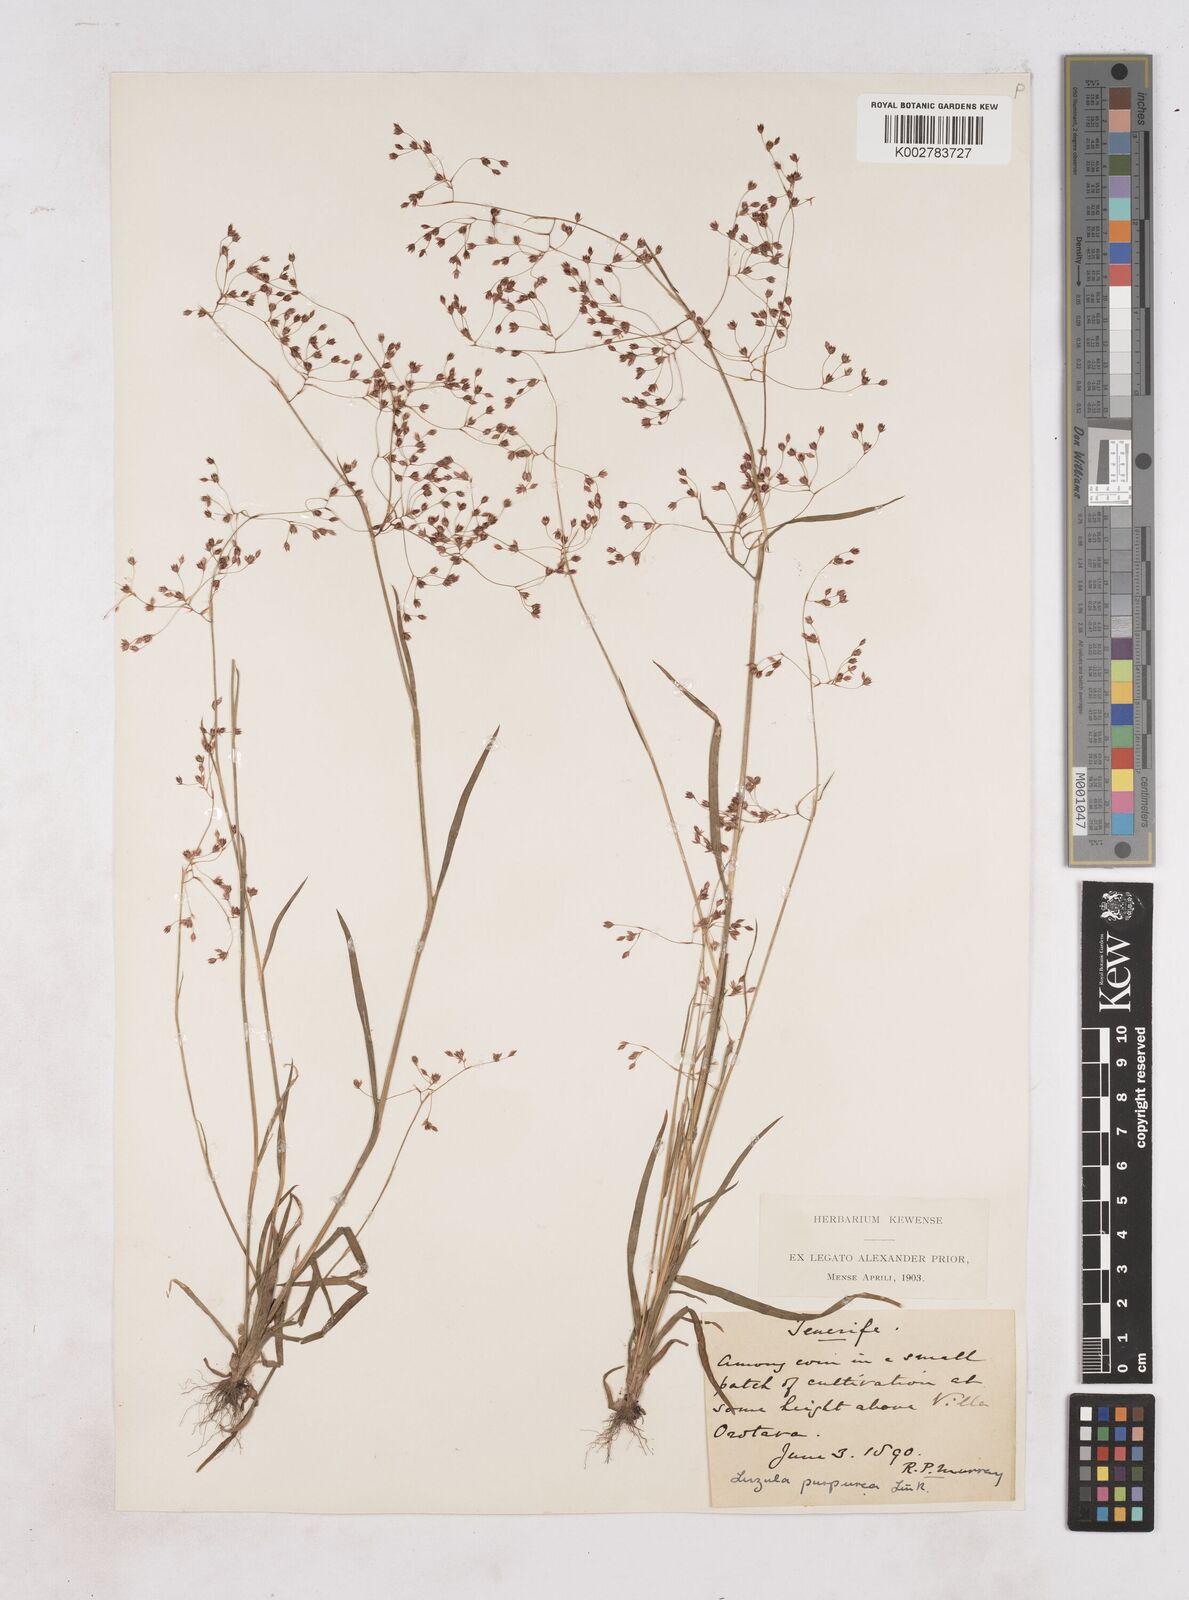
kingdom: Plantae
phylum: Tracheophyta
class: Liliopsida
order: Poales
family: Juncaceae
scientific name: Juncaceae
